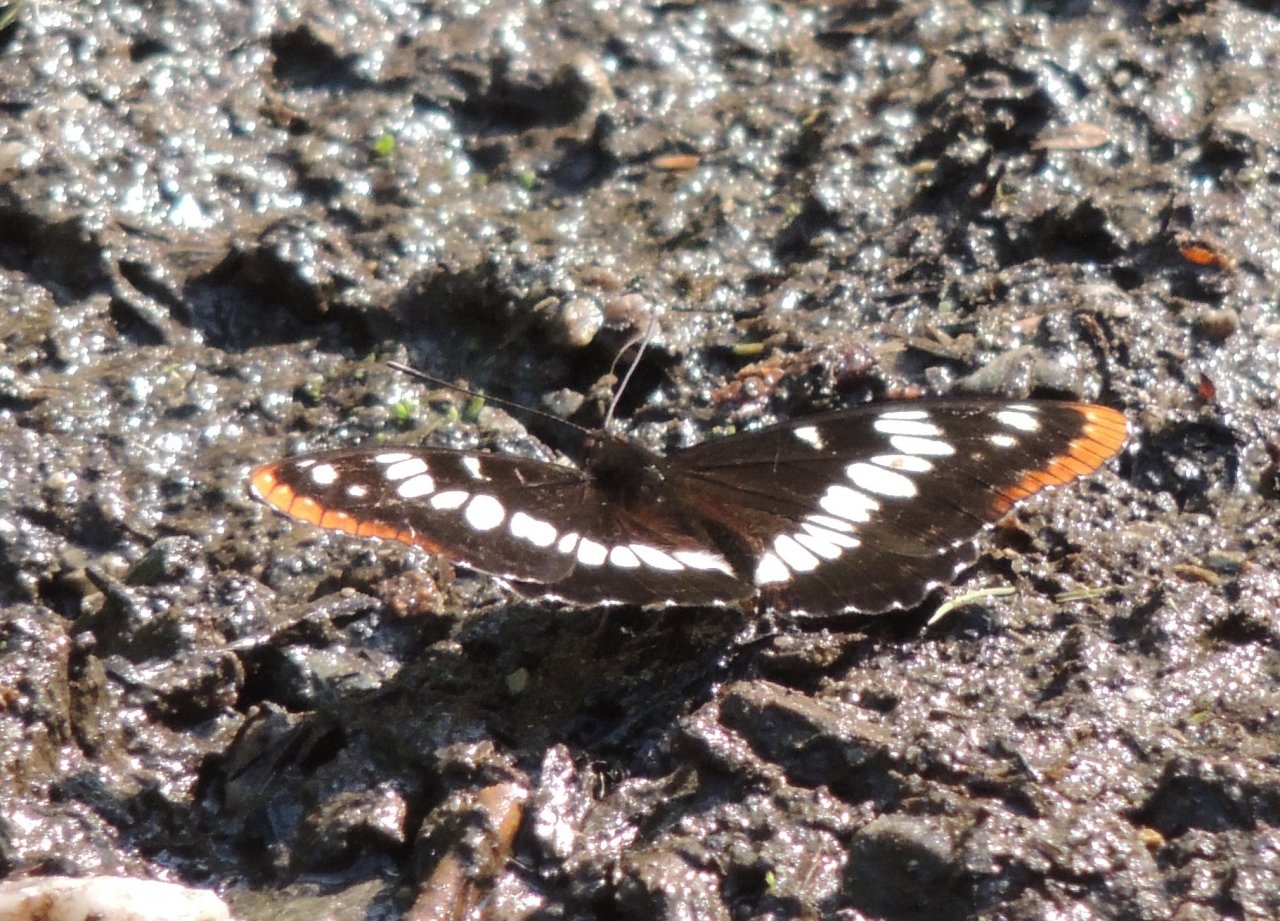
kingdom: Animalia
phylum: Arthropoda
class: Insecta
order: Lepidoptera
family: Nymphalidae
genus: Limenitis
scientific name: Limenitis lorquini
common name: Lorquin's Admiral
